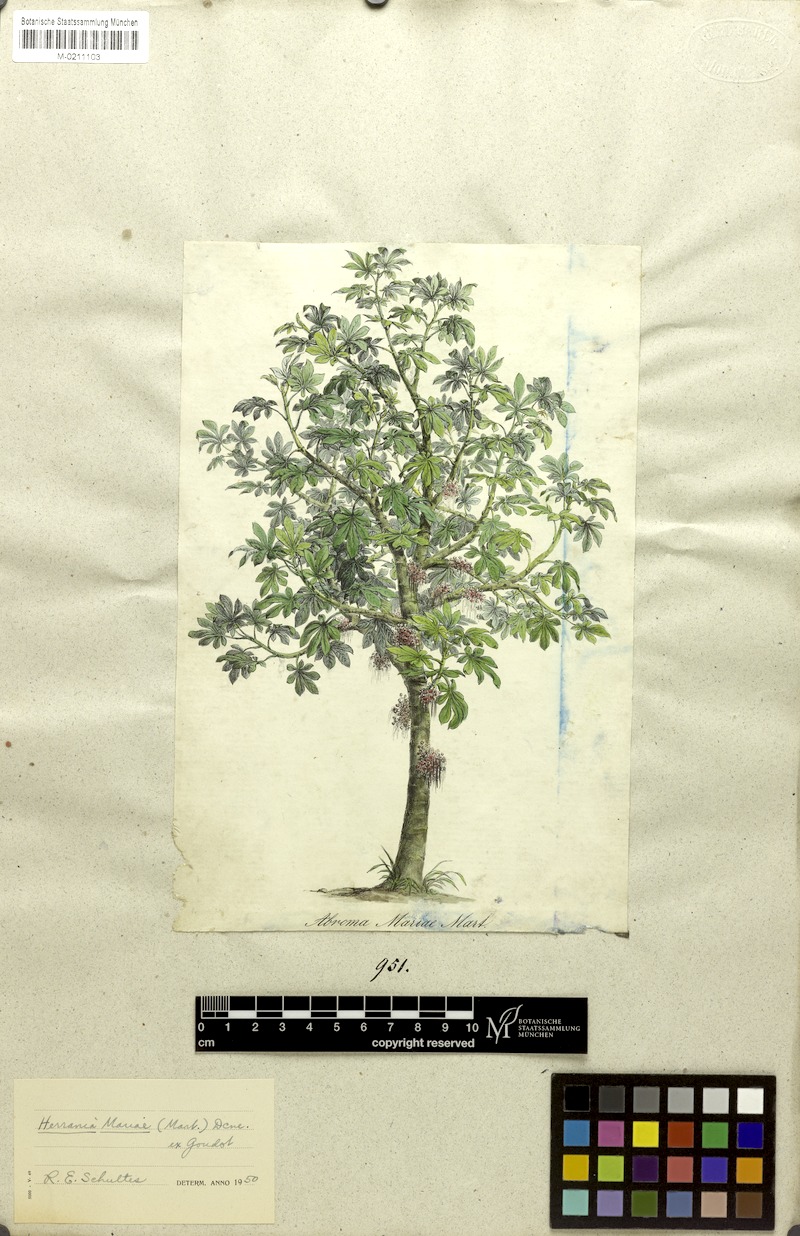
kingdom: Plantae
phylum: Tracheophyta
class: Magnoliopsida
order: Malvales
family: Malvaceae
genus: Abroma
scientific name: Abroma augustum
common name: Devil's-cotton
